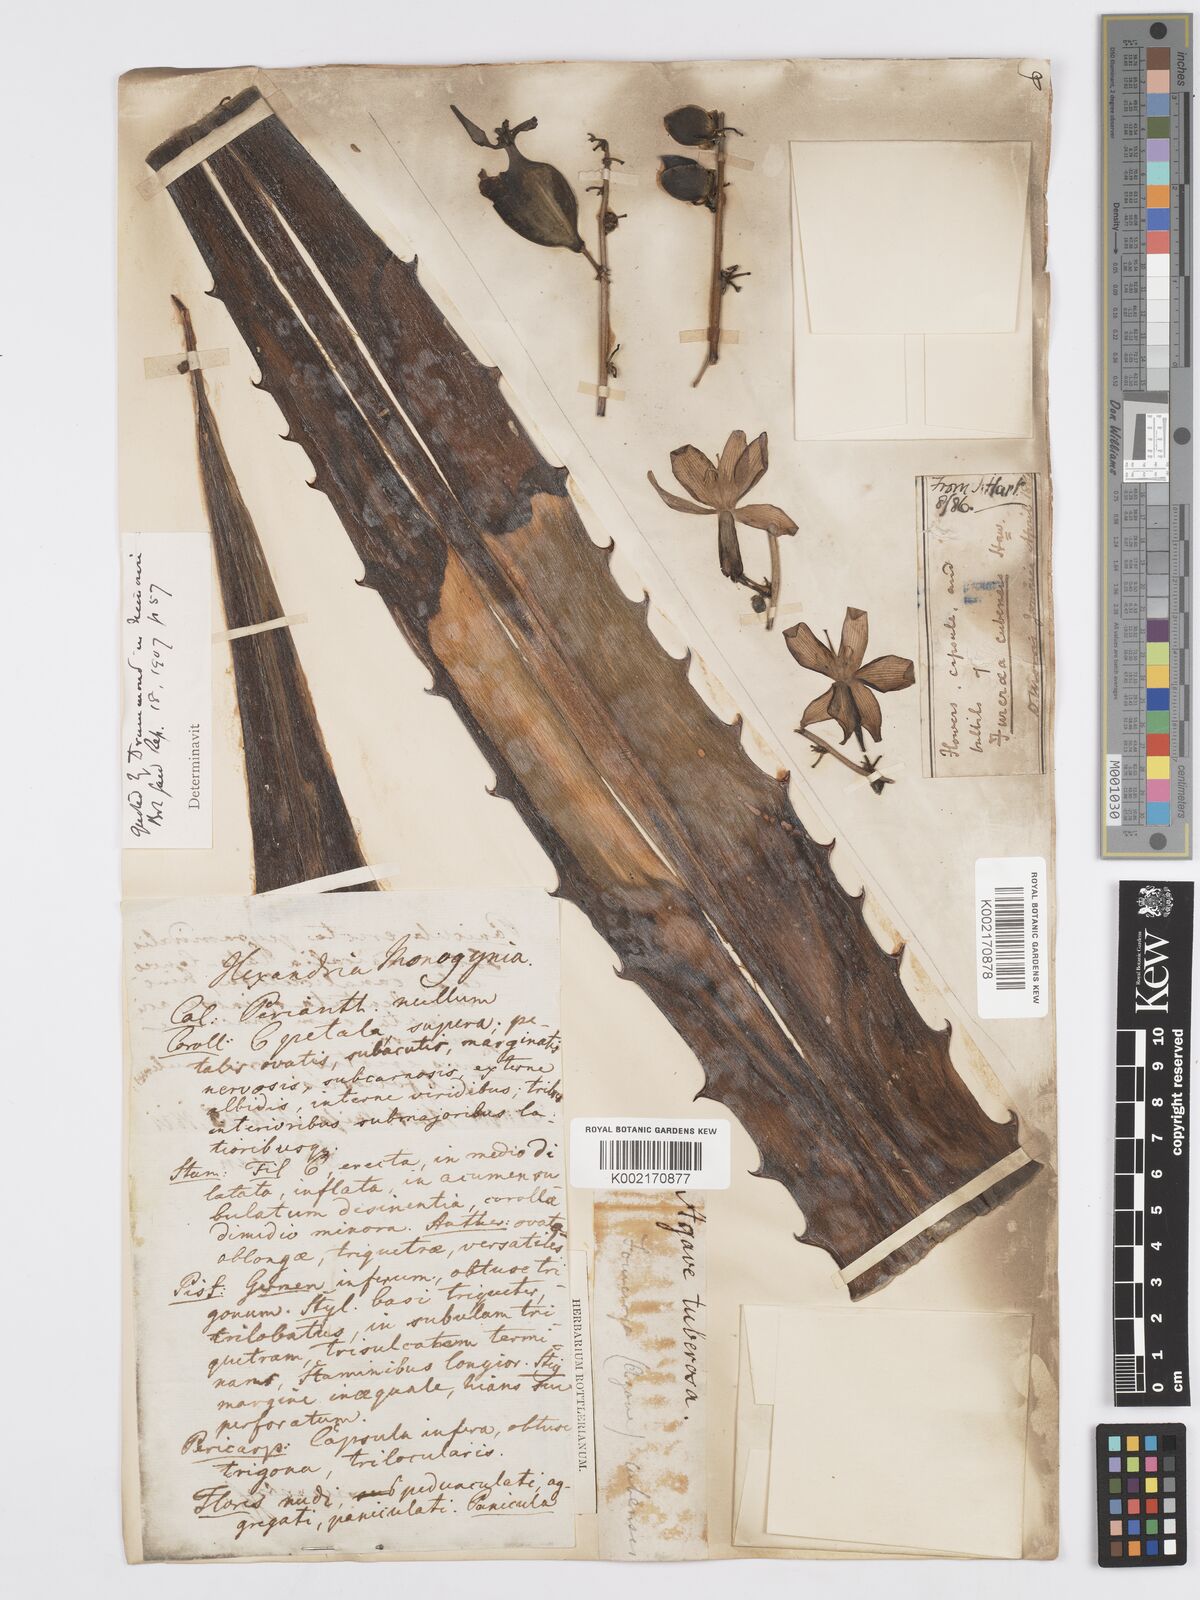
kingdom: Plantae
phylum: Tracheophyta
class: Liliopsida
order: Asparagales
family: Asparagaceae
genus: Furcraea
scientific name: Furcraea stricta
